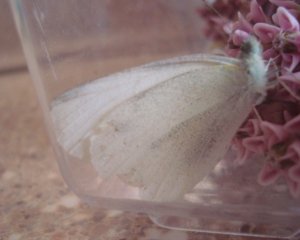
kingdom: Animalia
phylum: Arthropoda
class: Insecta
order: Lepidoptera
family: Pieridae
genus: Pieris
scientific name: Pieris oleracea
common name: Mustard White
